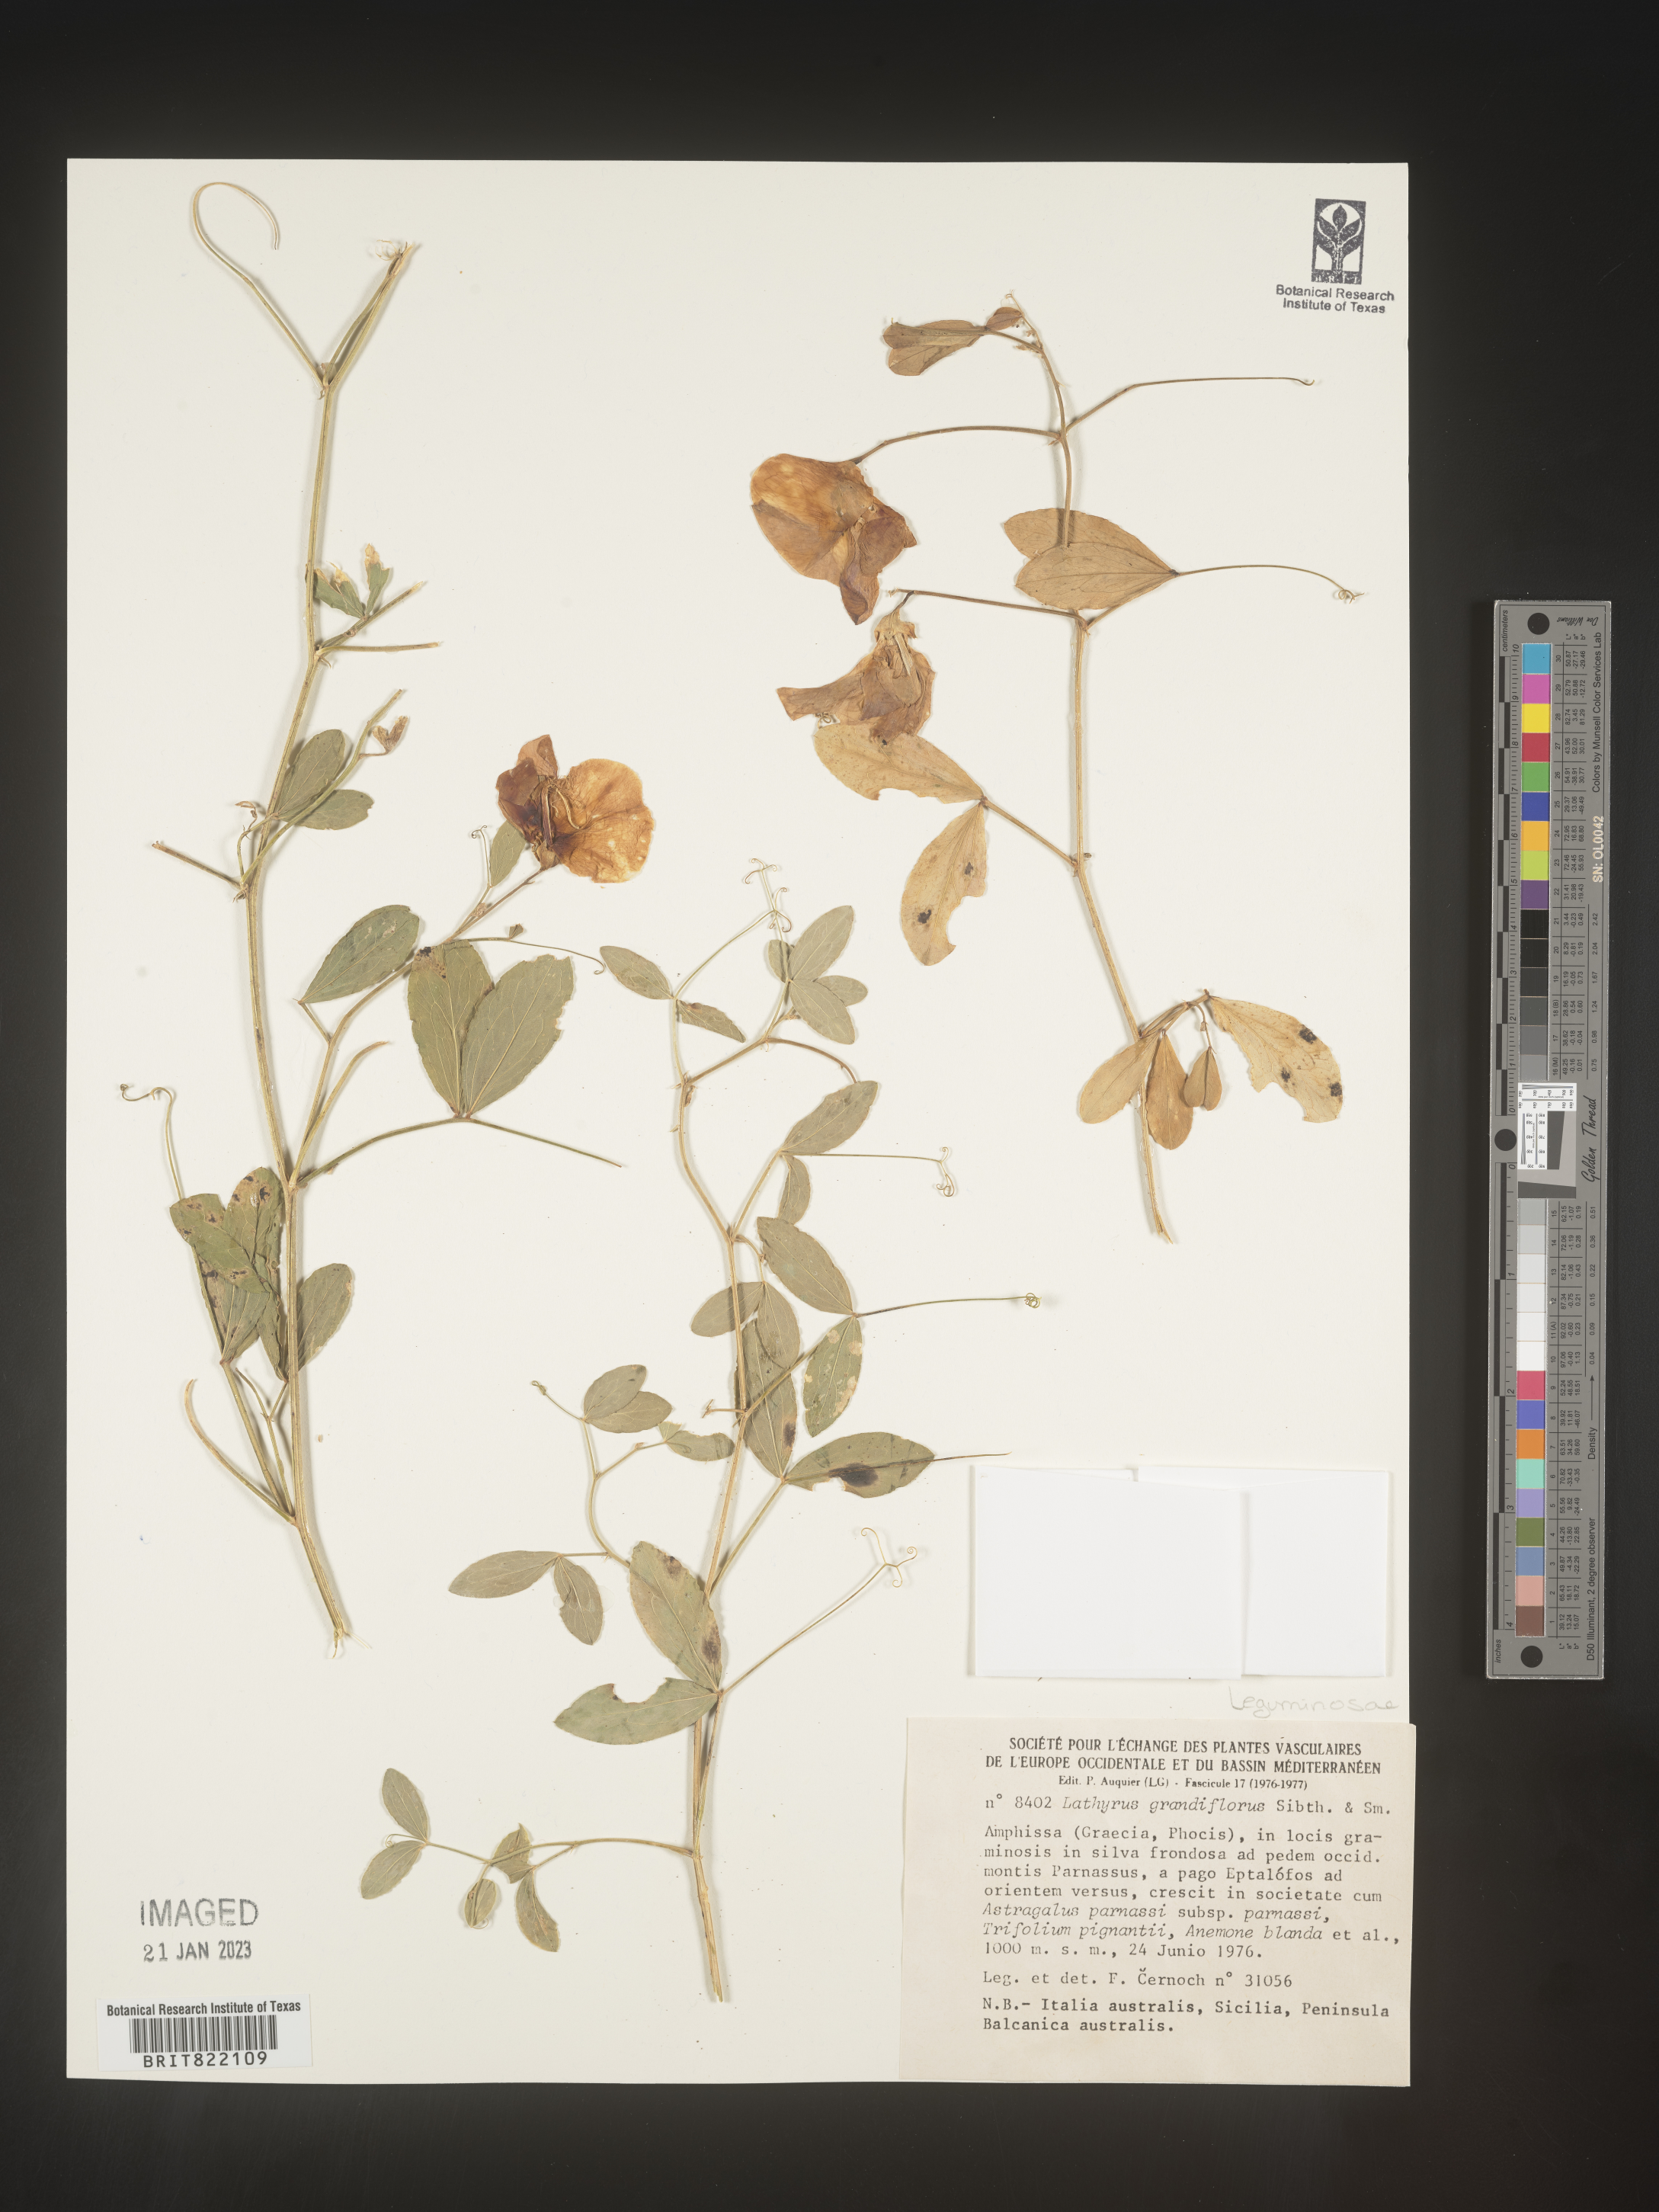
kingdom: Plantae
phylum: Tracheophyta
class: Magnoliopsida
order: Fabales
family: Fabaceae
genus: Lathyrus
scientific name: Lathyrus
